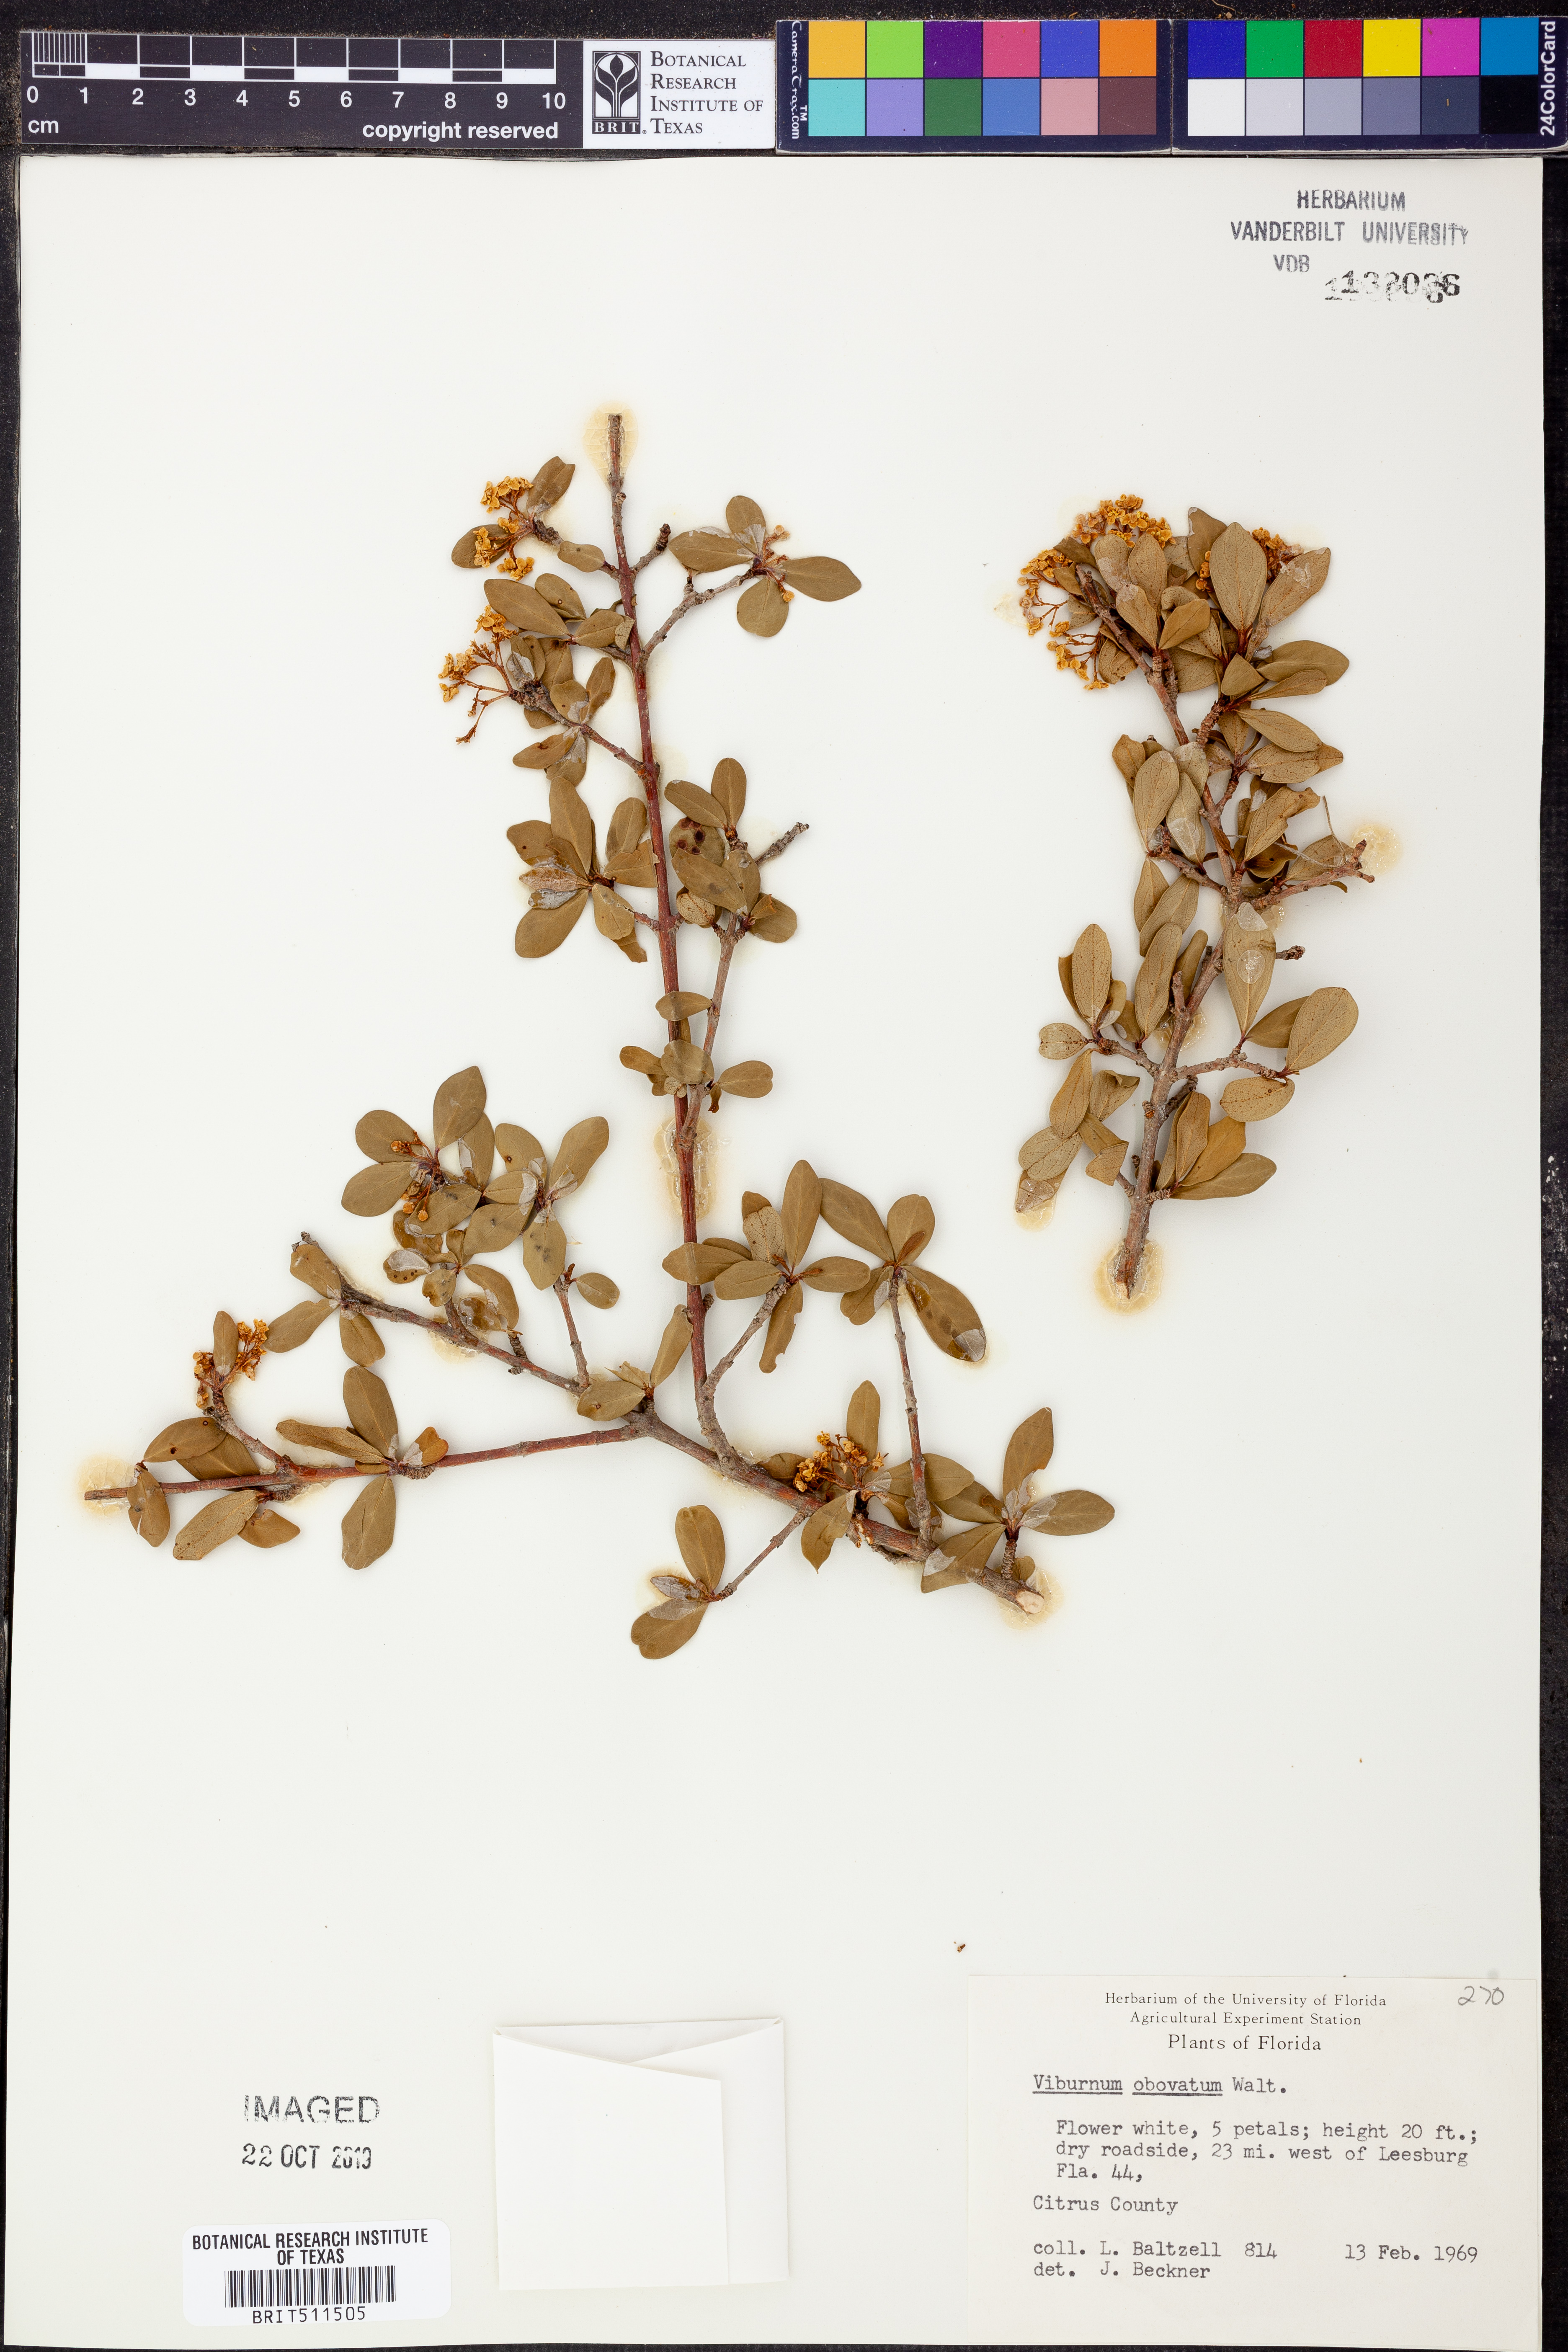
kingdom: Plantae
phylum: Tracheophyta
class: Magnoliopsida
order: Dipsacales
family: Viburnaceae
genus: Viburnum
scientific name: Viburnum obovatum
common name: Walter's viburnum
